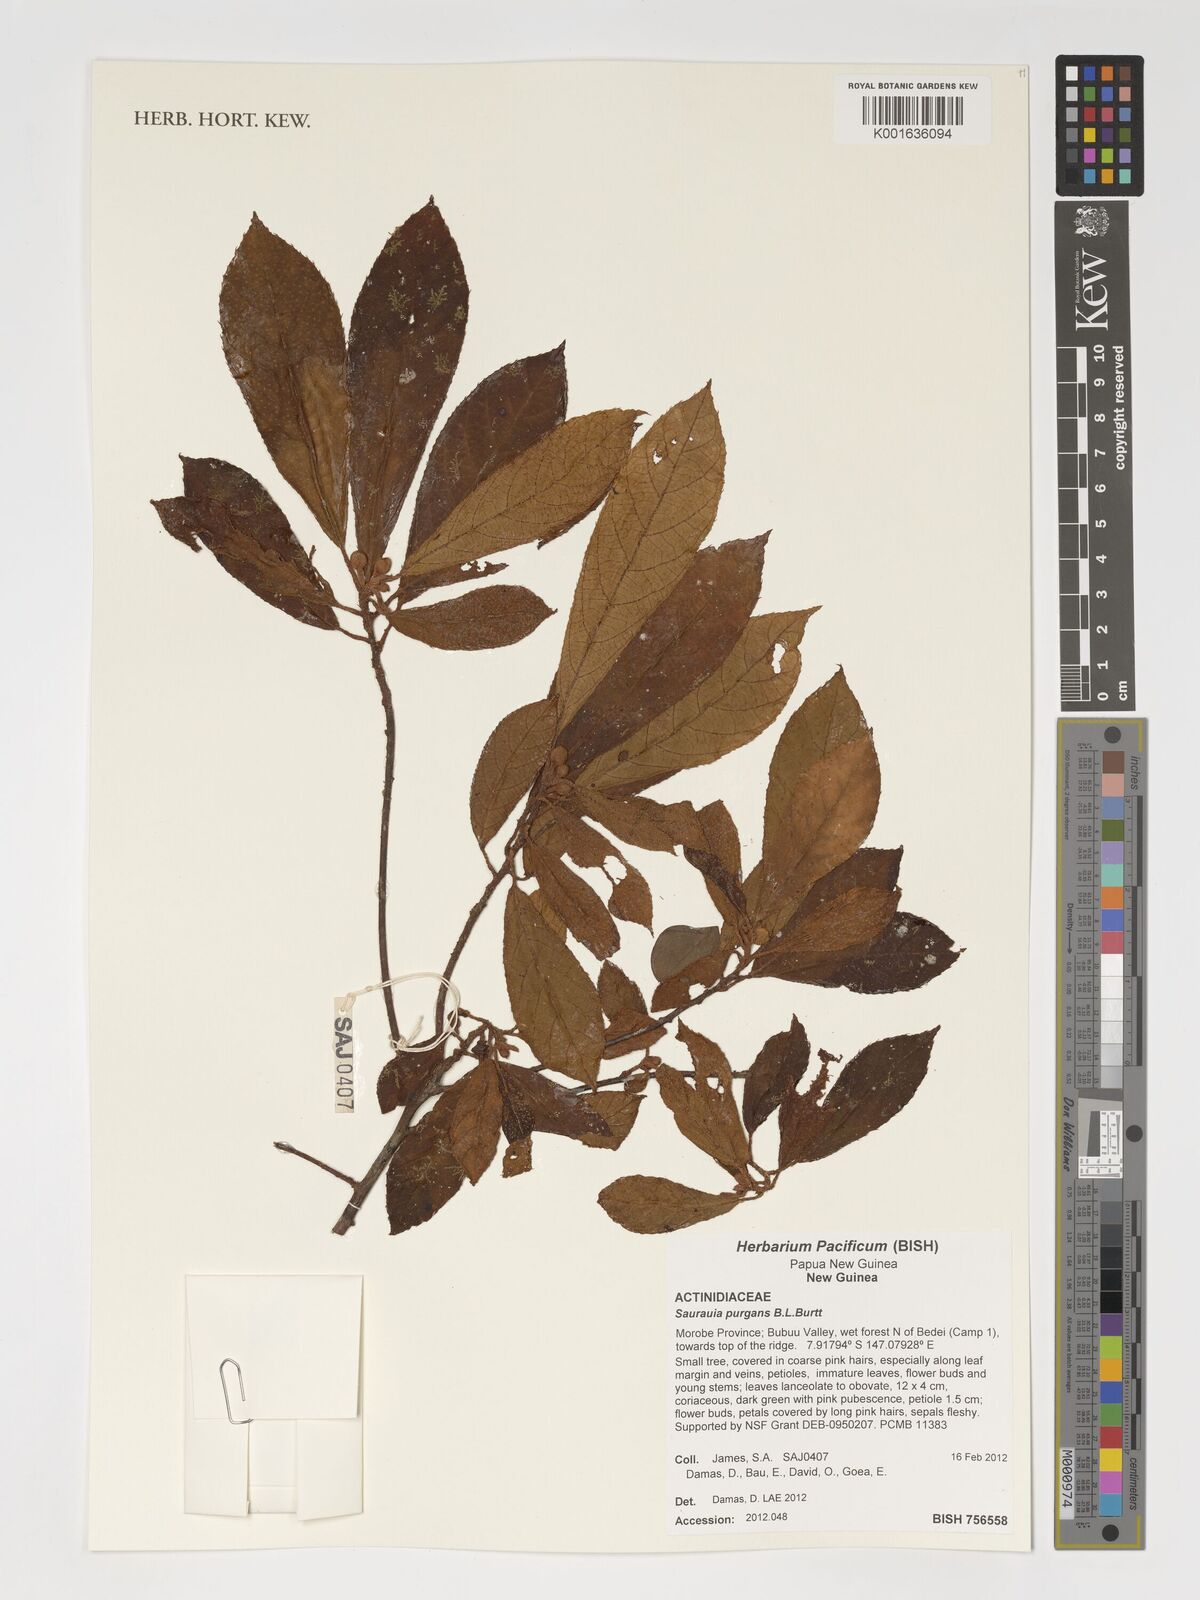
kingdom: Plantae
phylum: Tracheophyta
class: Magnoliopsida
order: Ericales
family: Actinidiaceae
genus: Saurauia
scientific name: Saurauia purgans
